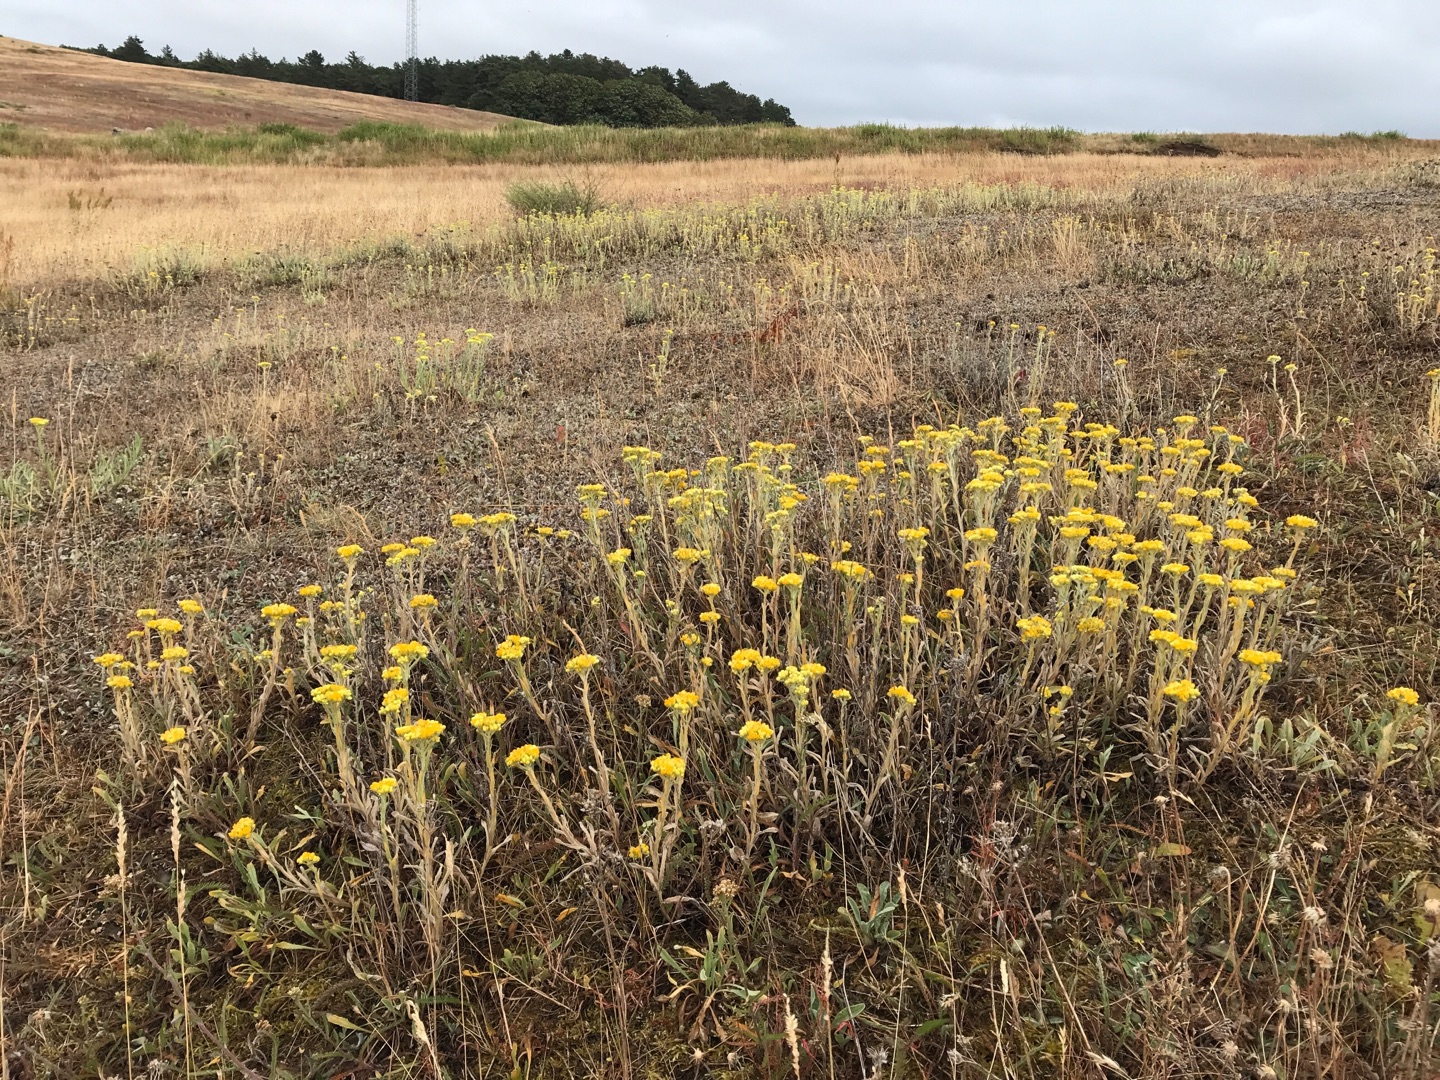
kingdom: Plantae
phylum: Tracheophyta
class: Magnoliopsida
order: Asterales
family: Asteraceae
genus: Helichrysum
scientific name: Helichrysum arenarium
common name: Gul evighedsblomst
